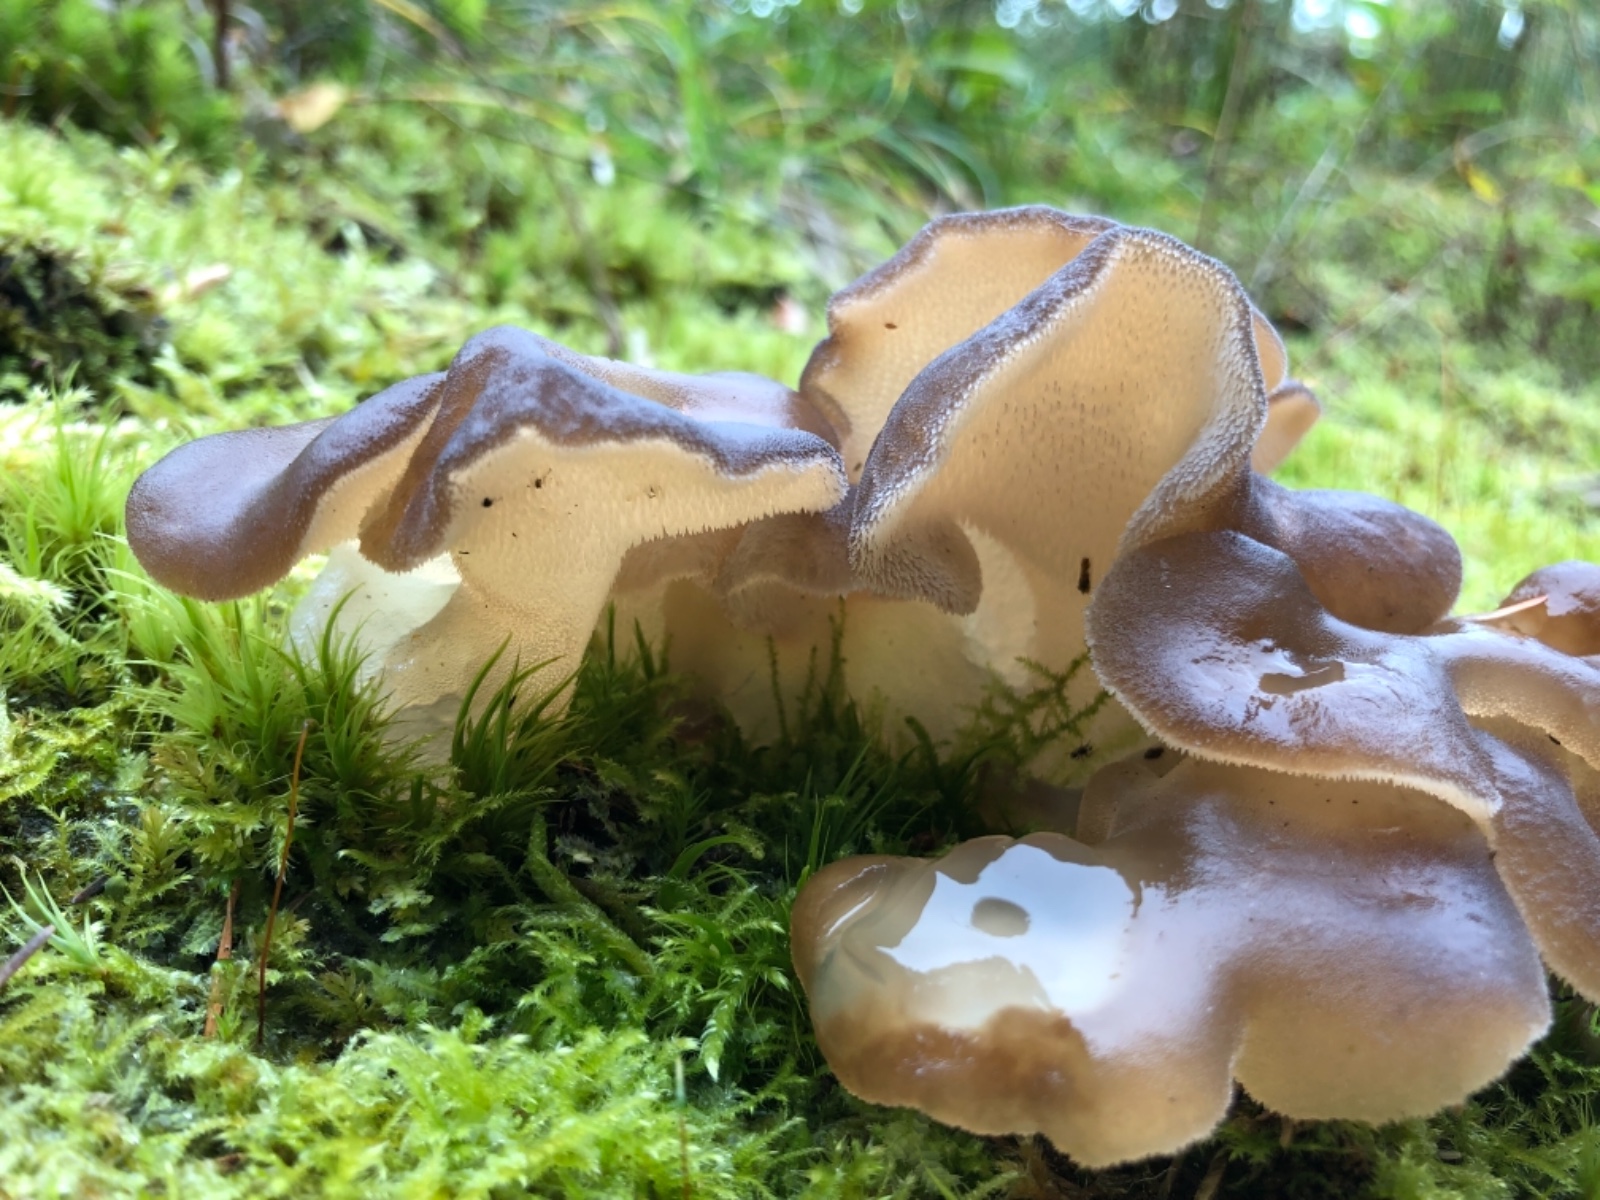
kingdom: Fungi
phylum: Basidiomycota
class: Agaricomycetes
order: Auriculariales
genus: Pseudohydnum
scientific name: Pseudohydnum gelatinosum
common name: bævretand
